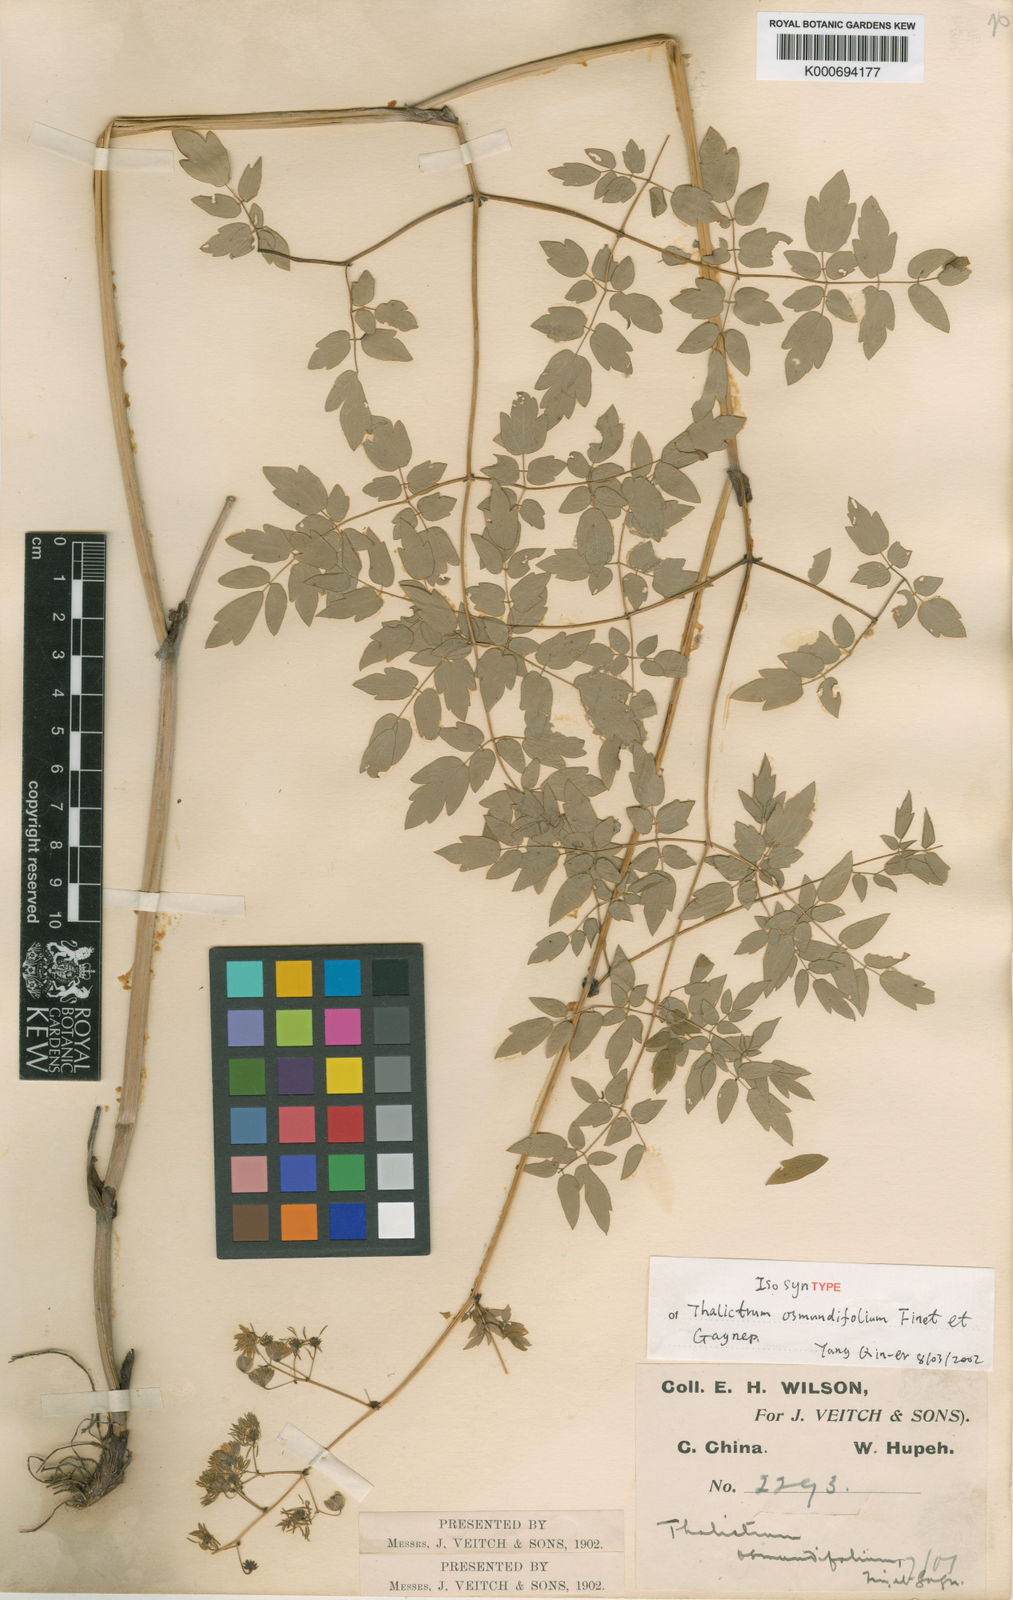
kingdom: Plantae
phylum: Tracheophyta
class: Magnoliopsida
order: Ranunculales
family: Ranunculaceae
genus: Thalictrum
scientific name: Thalictrum osmundifolium
